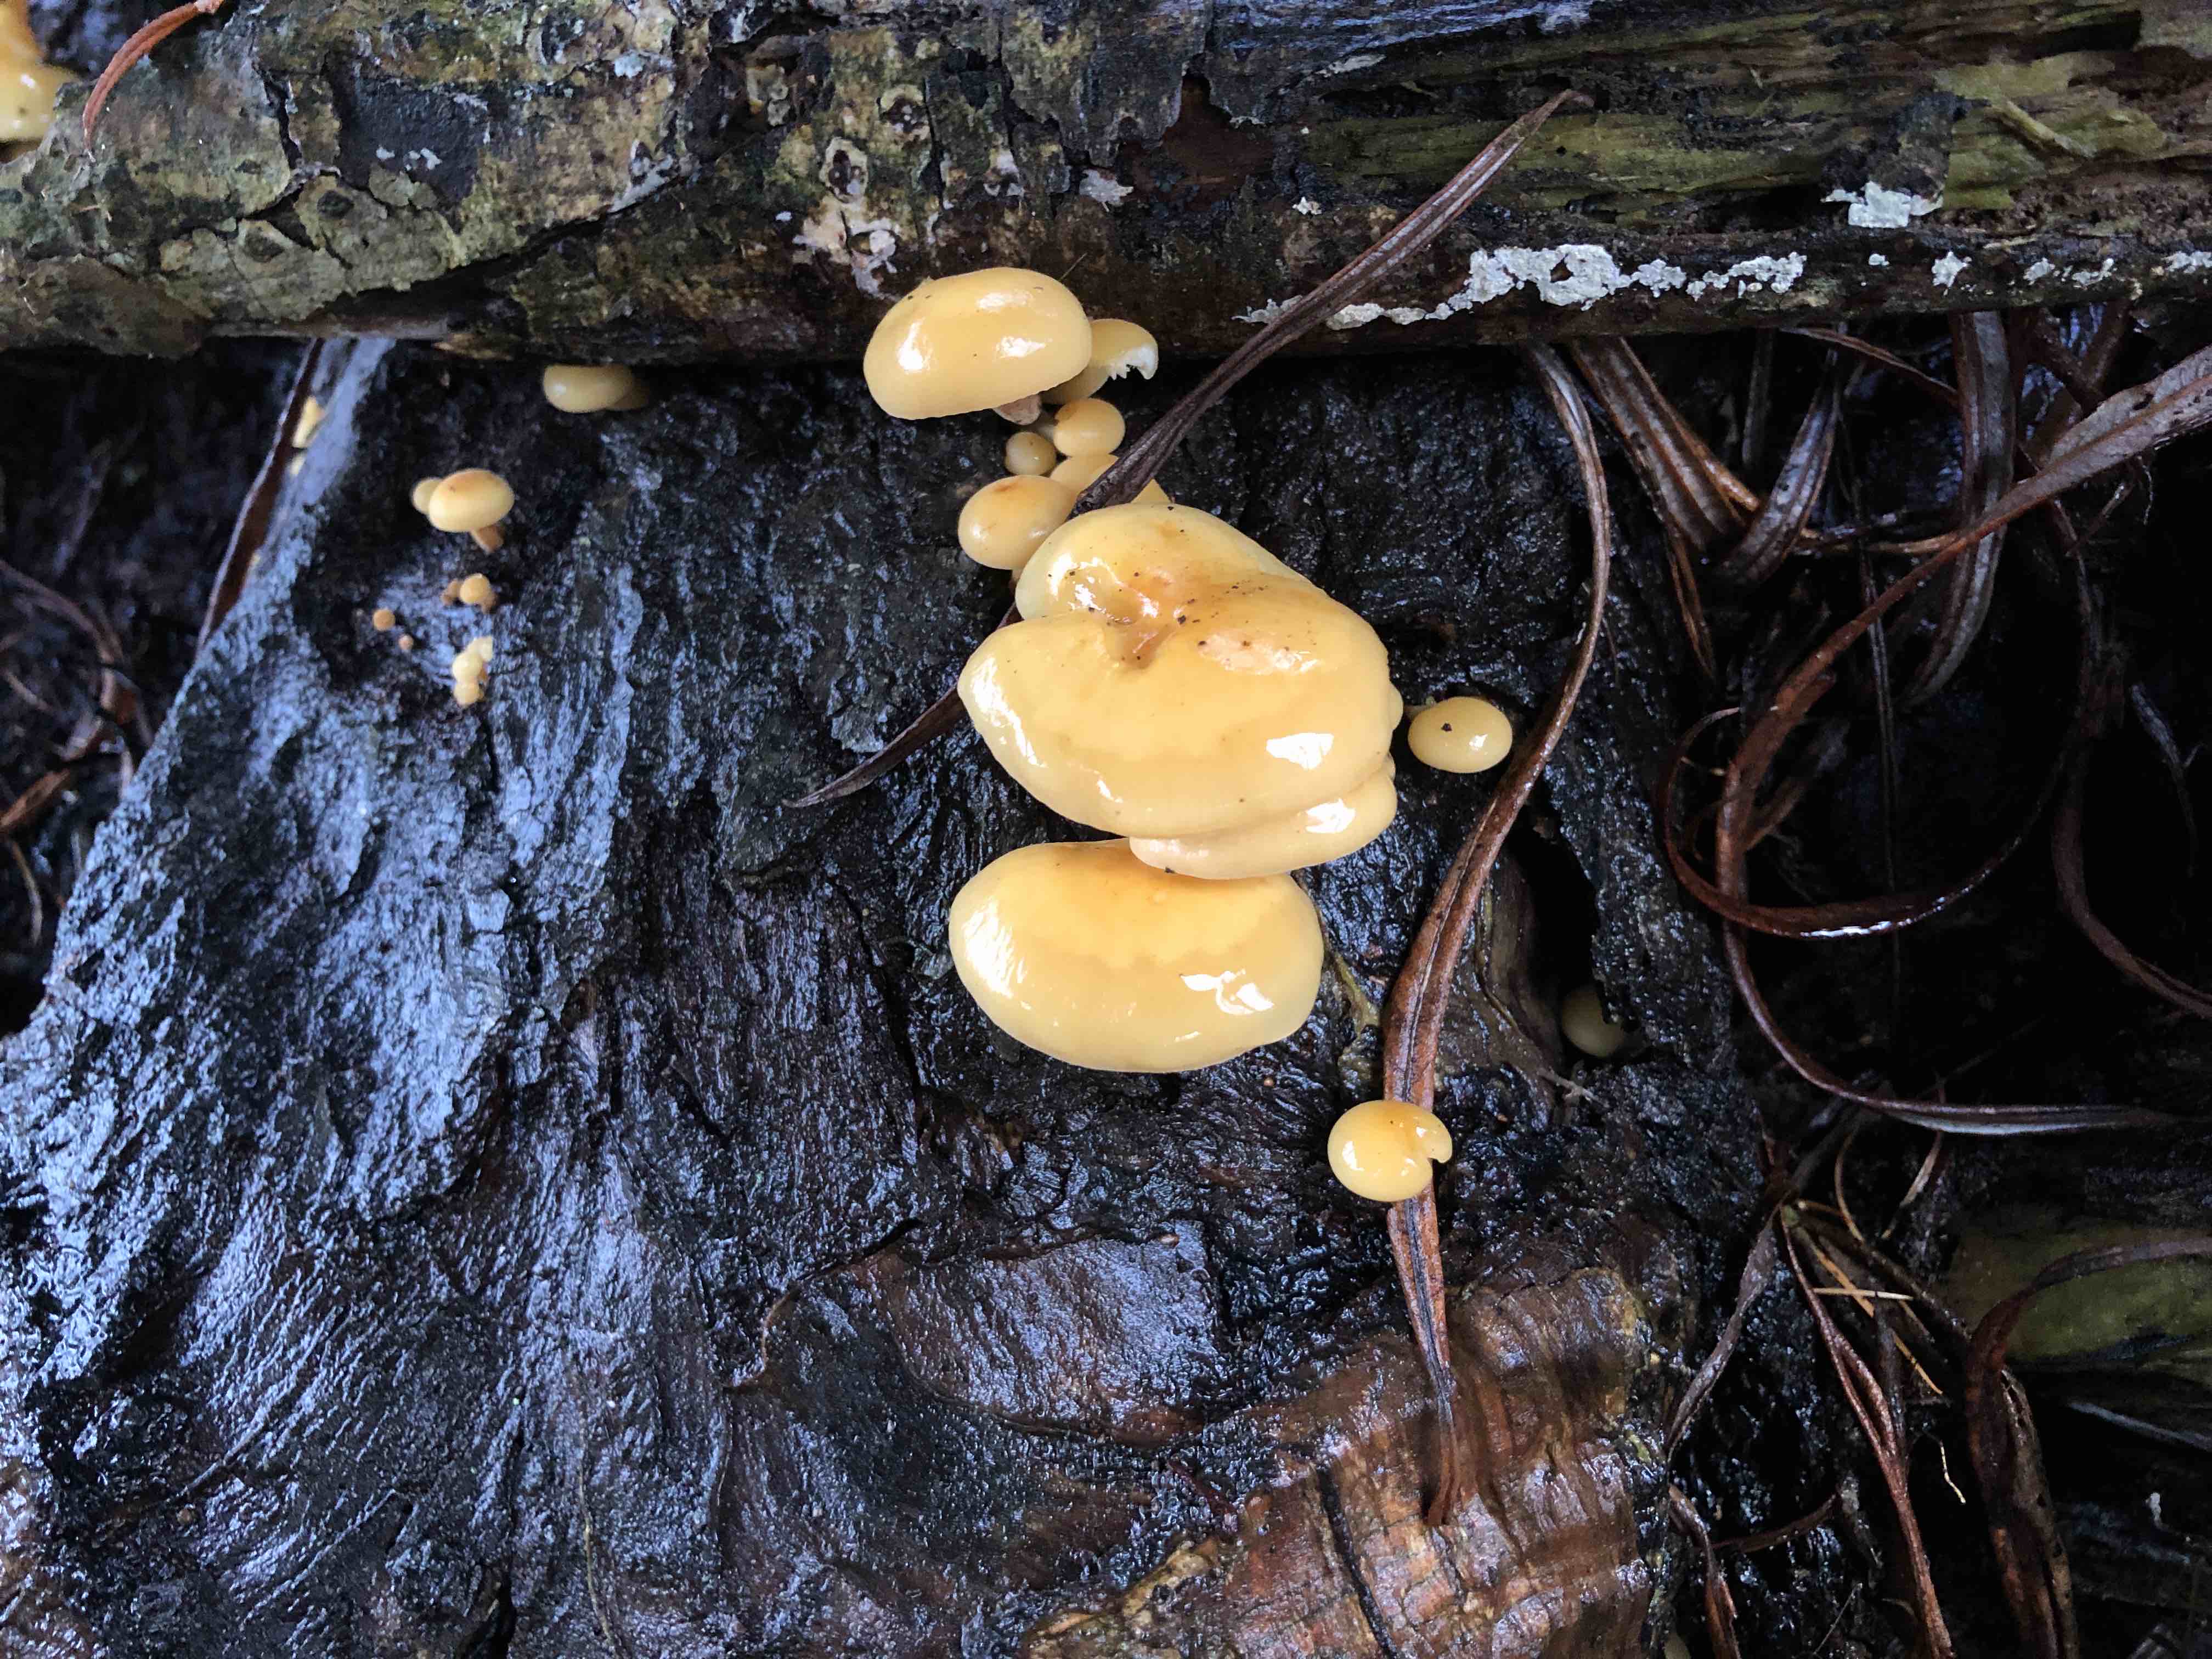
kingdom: Fungi
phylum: Basidiomycota
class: Agaricomycetes
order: Agaricales
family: Physalacriaceae
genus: Flammulina
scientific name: Flammulina rossica
